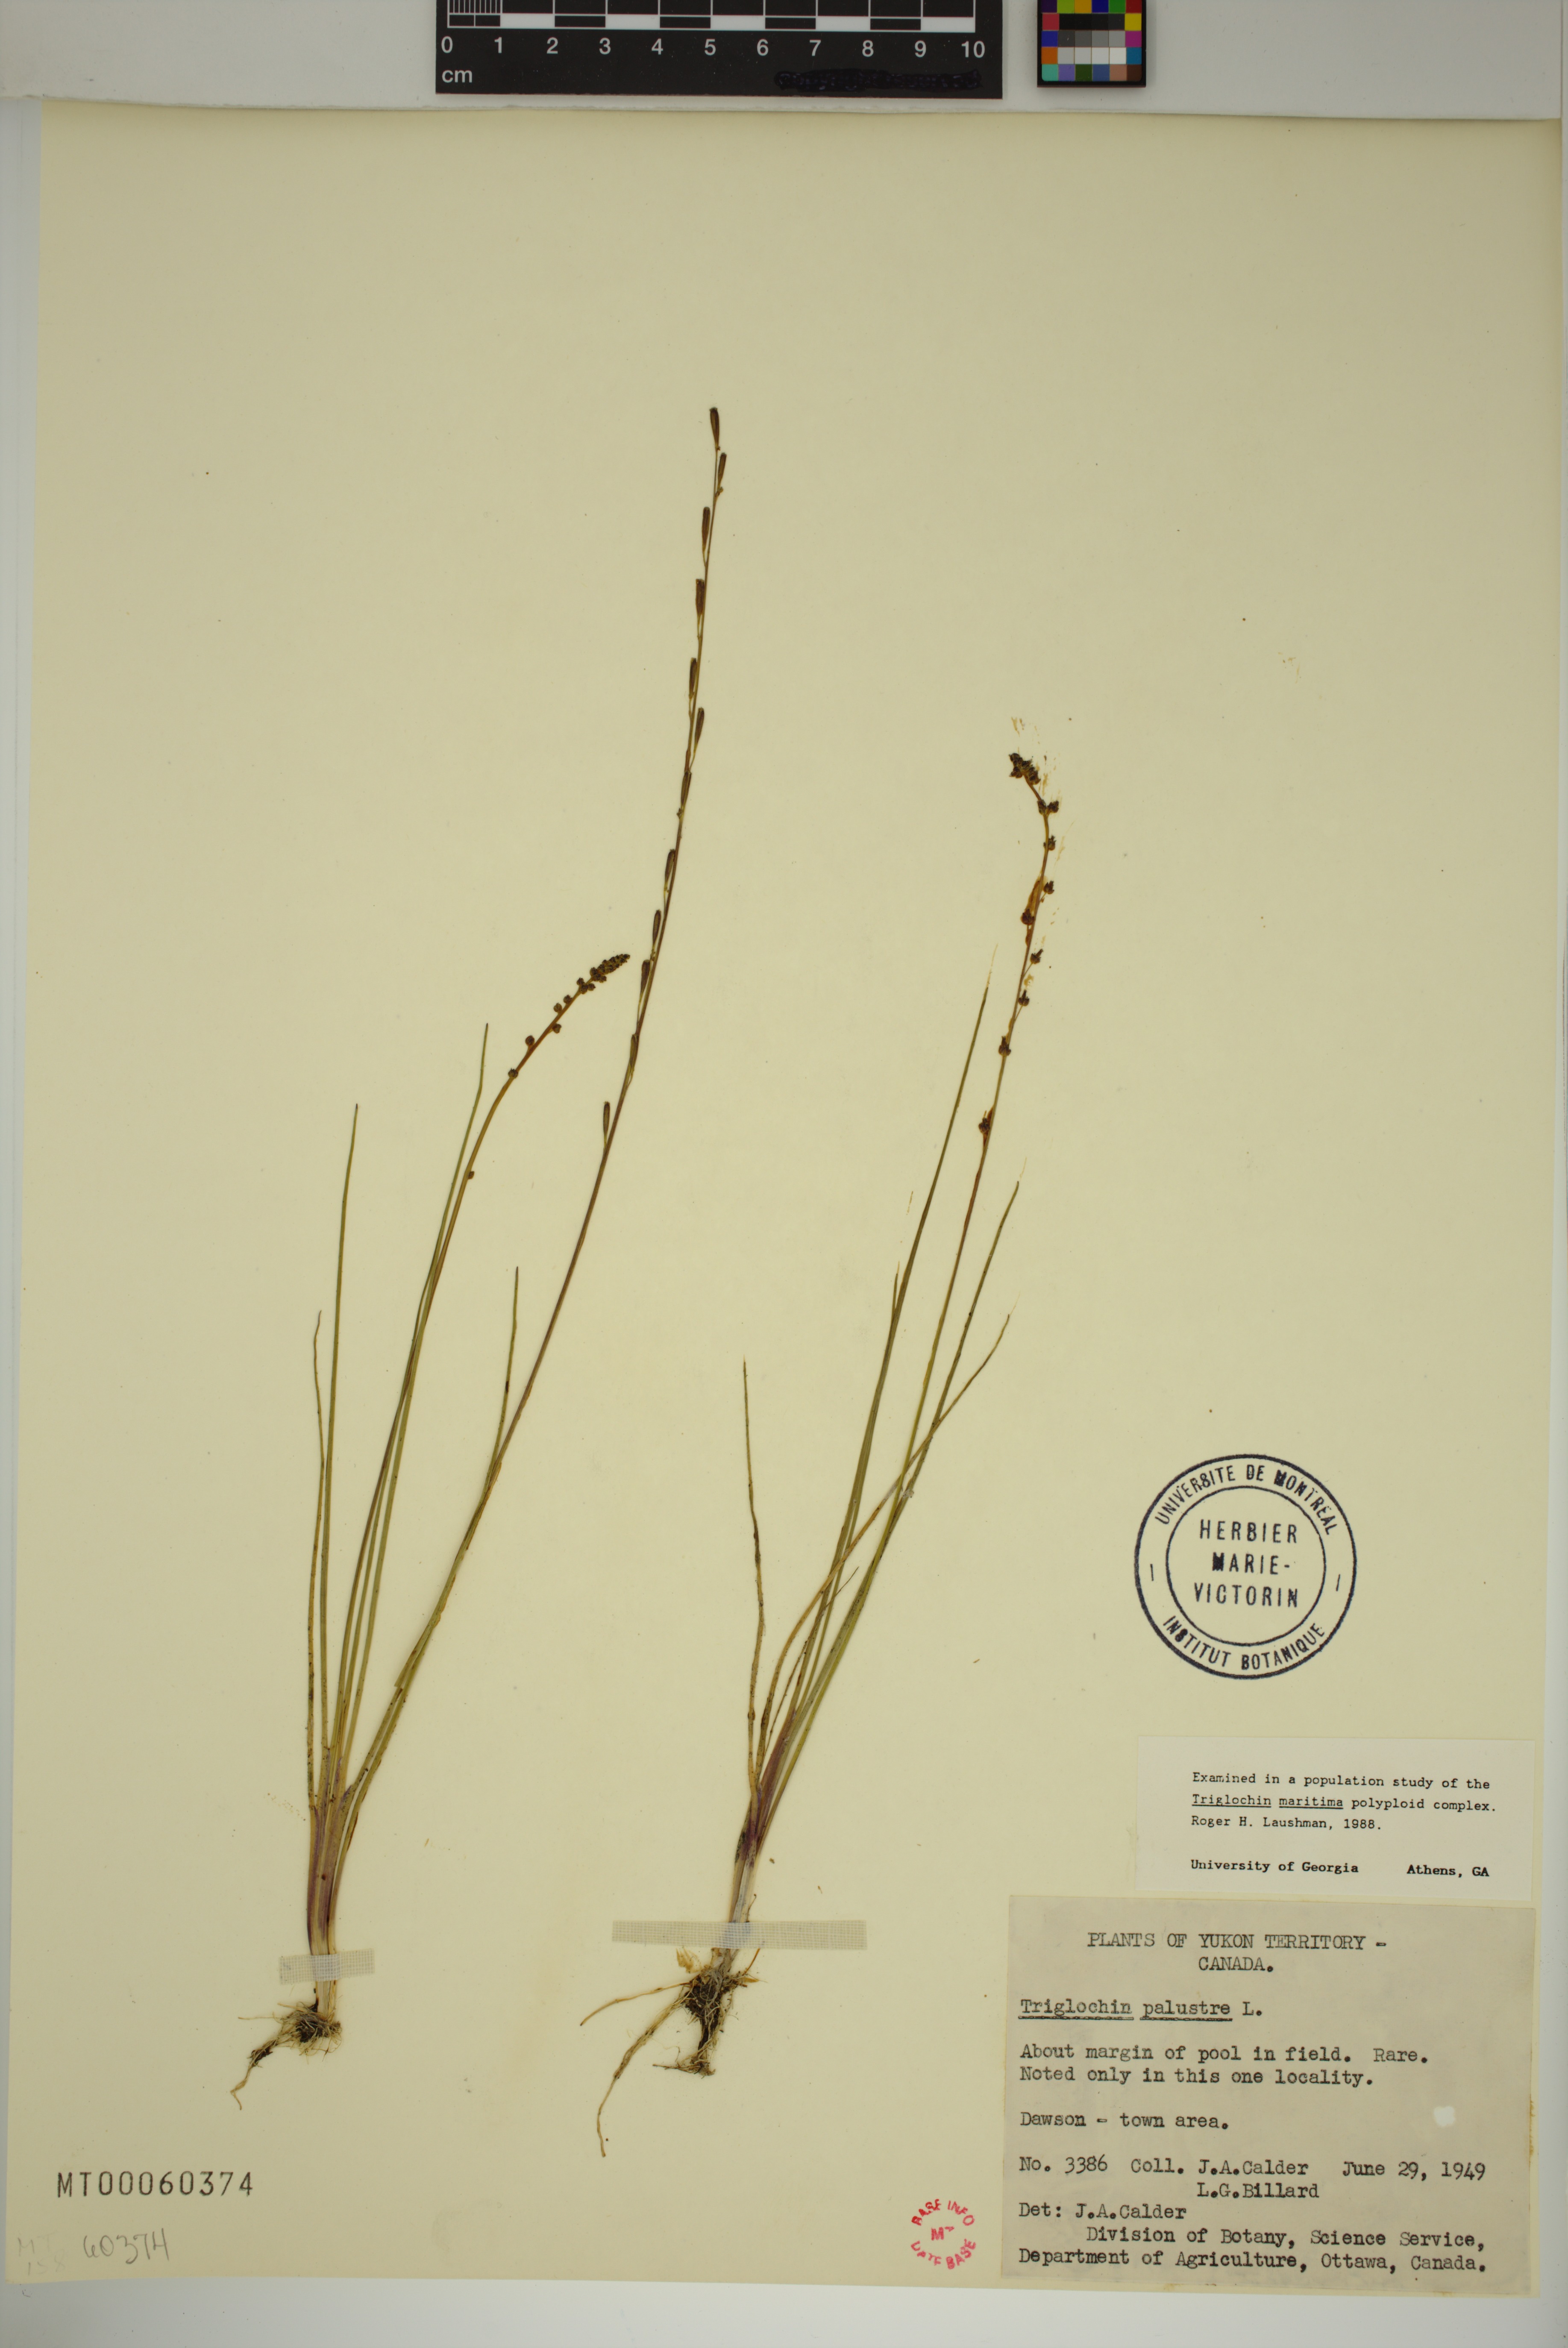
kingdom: Plantae
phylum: Tracheophyta
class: Liliopsida
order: Alismatales
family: Juncaginaceae
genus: Triglochin
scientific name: Triglochin palustris
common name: Marsh arrowgrass
